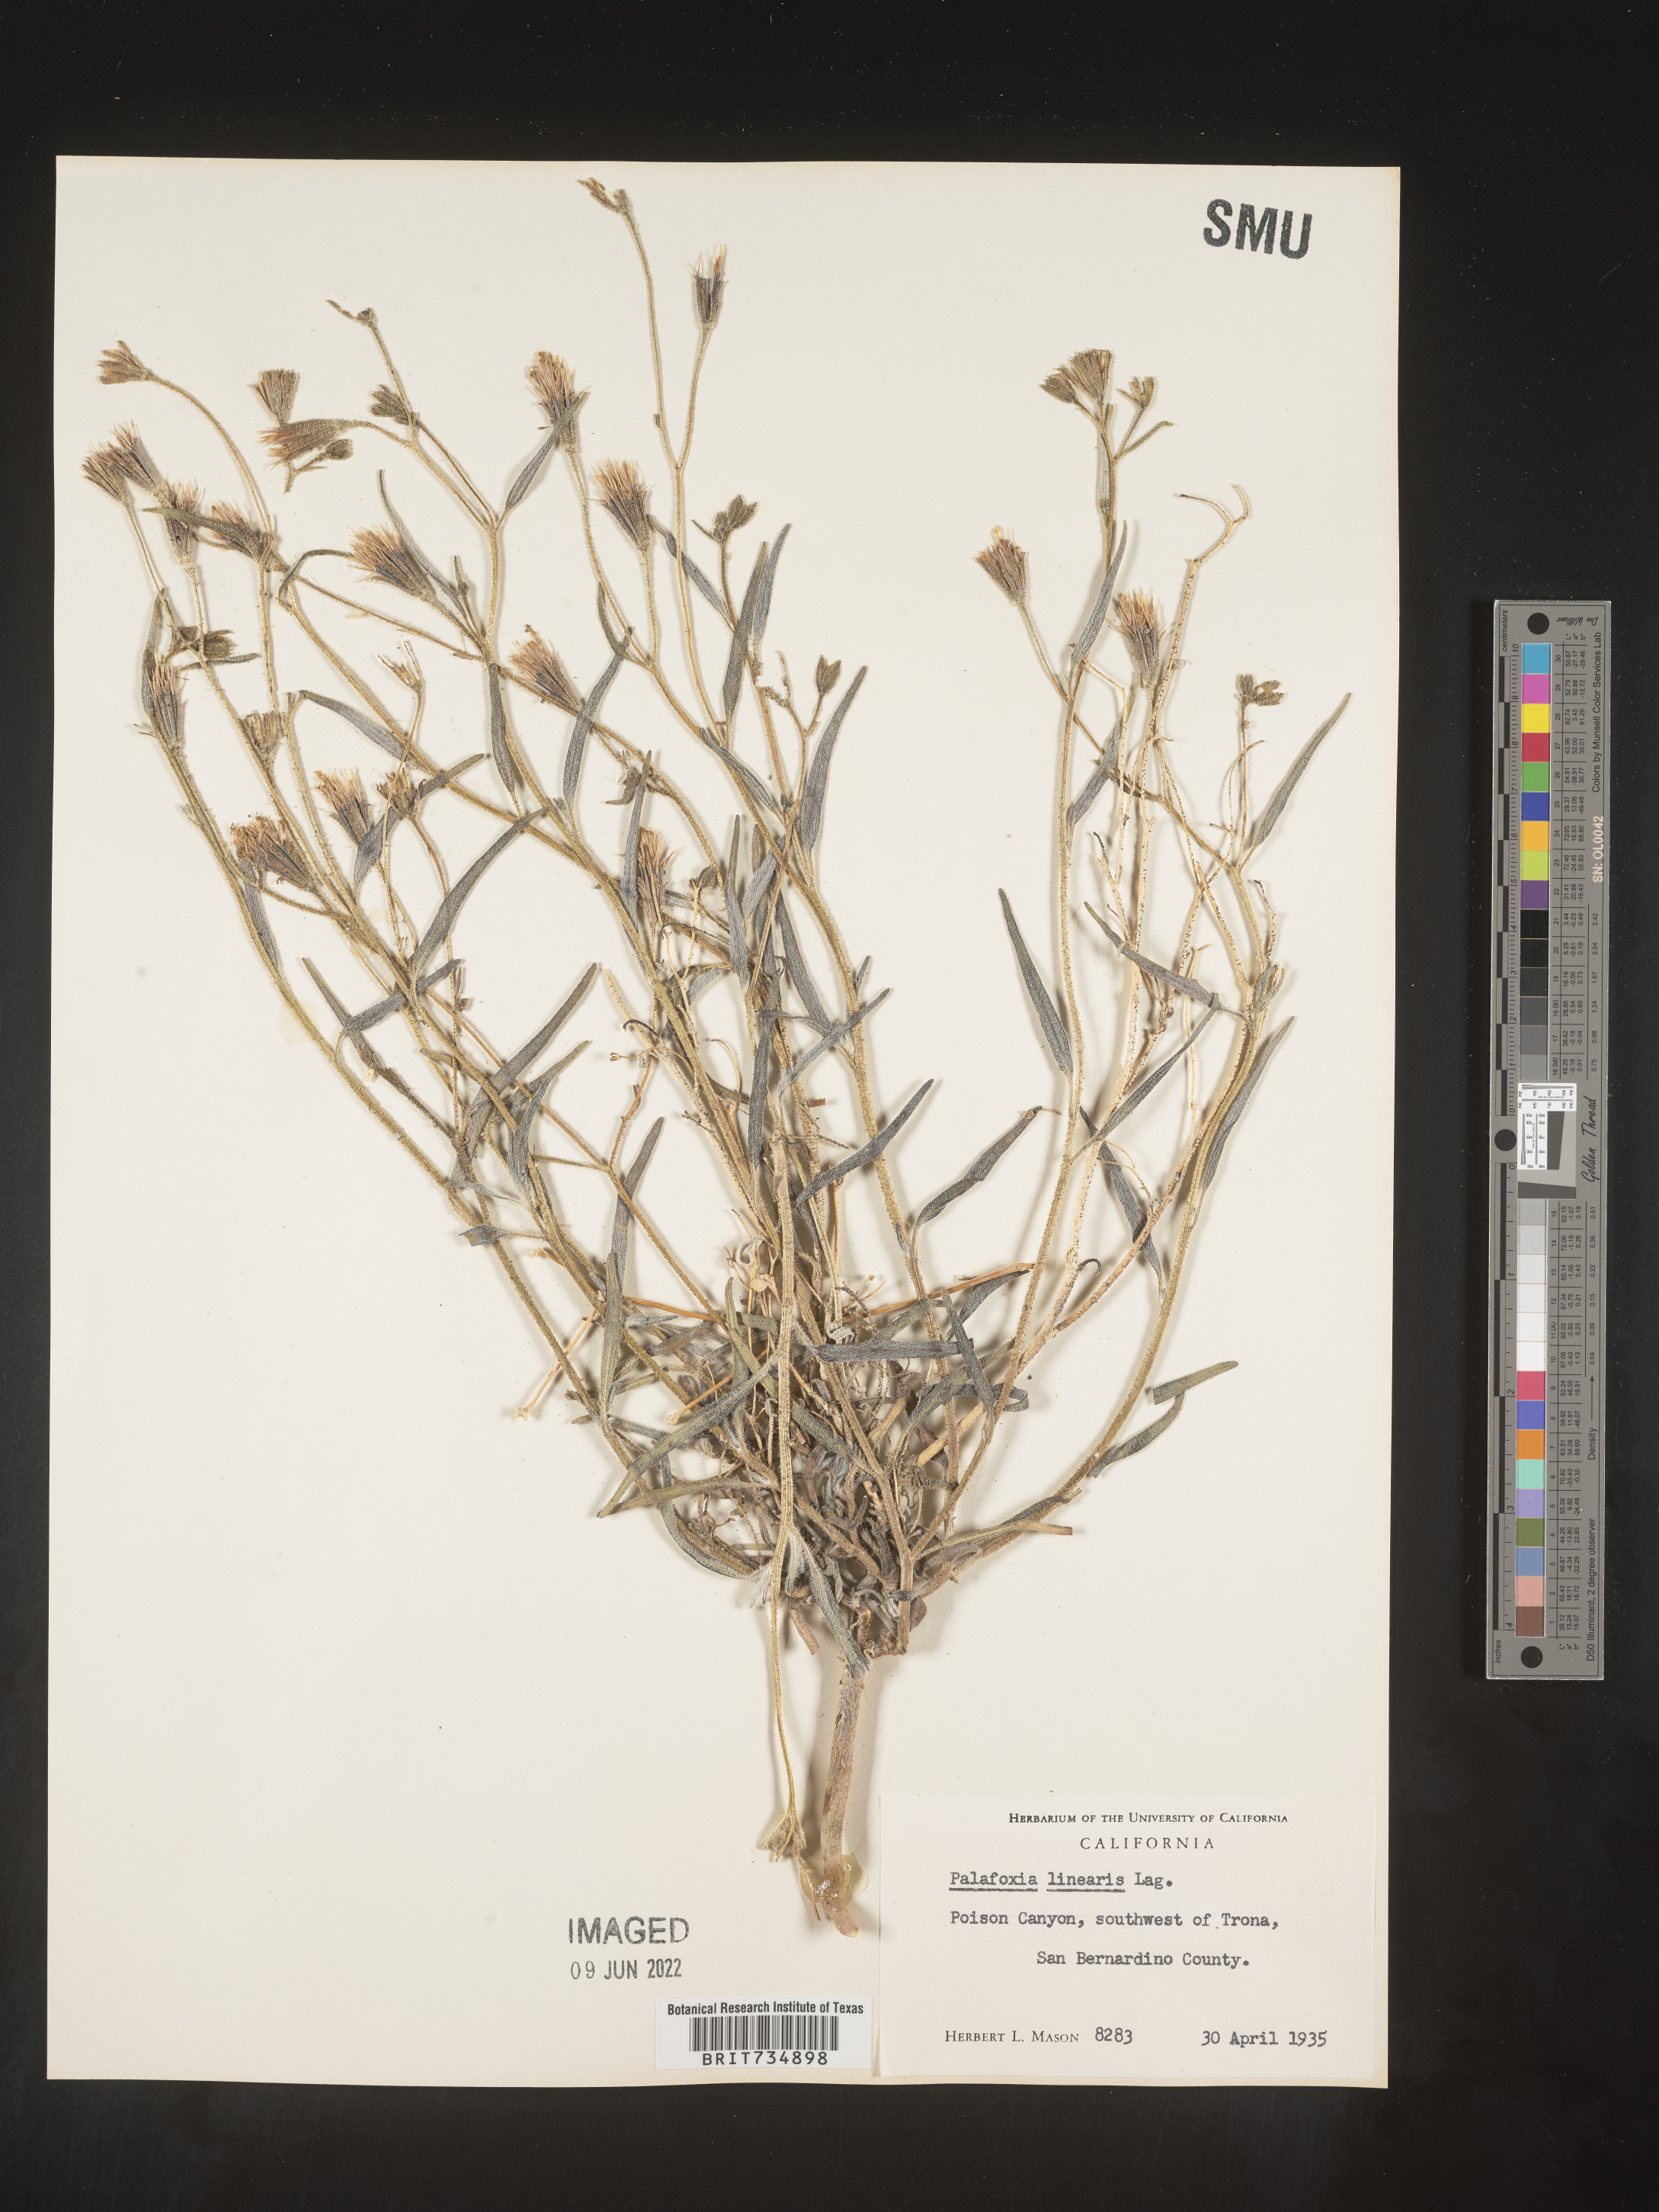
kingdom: Plantae
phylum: Tracheophyta
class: Magnoliopsida
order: Asterales
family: Asteraceae
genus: Palafoxia
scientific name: Palafoxia linearis
